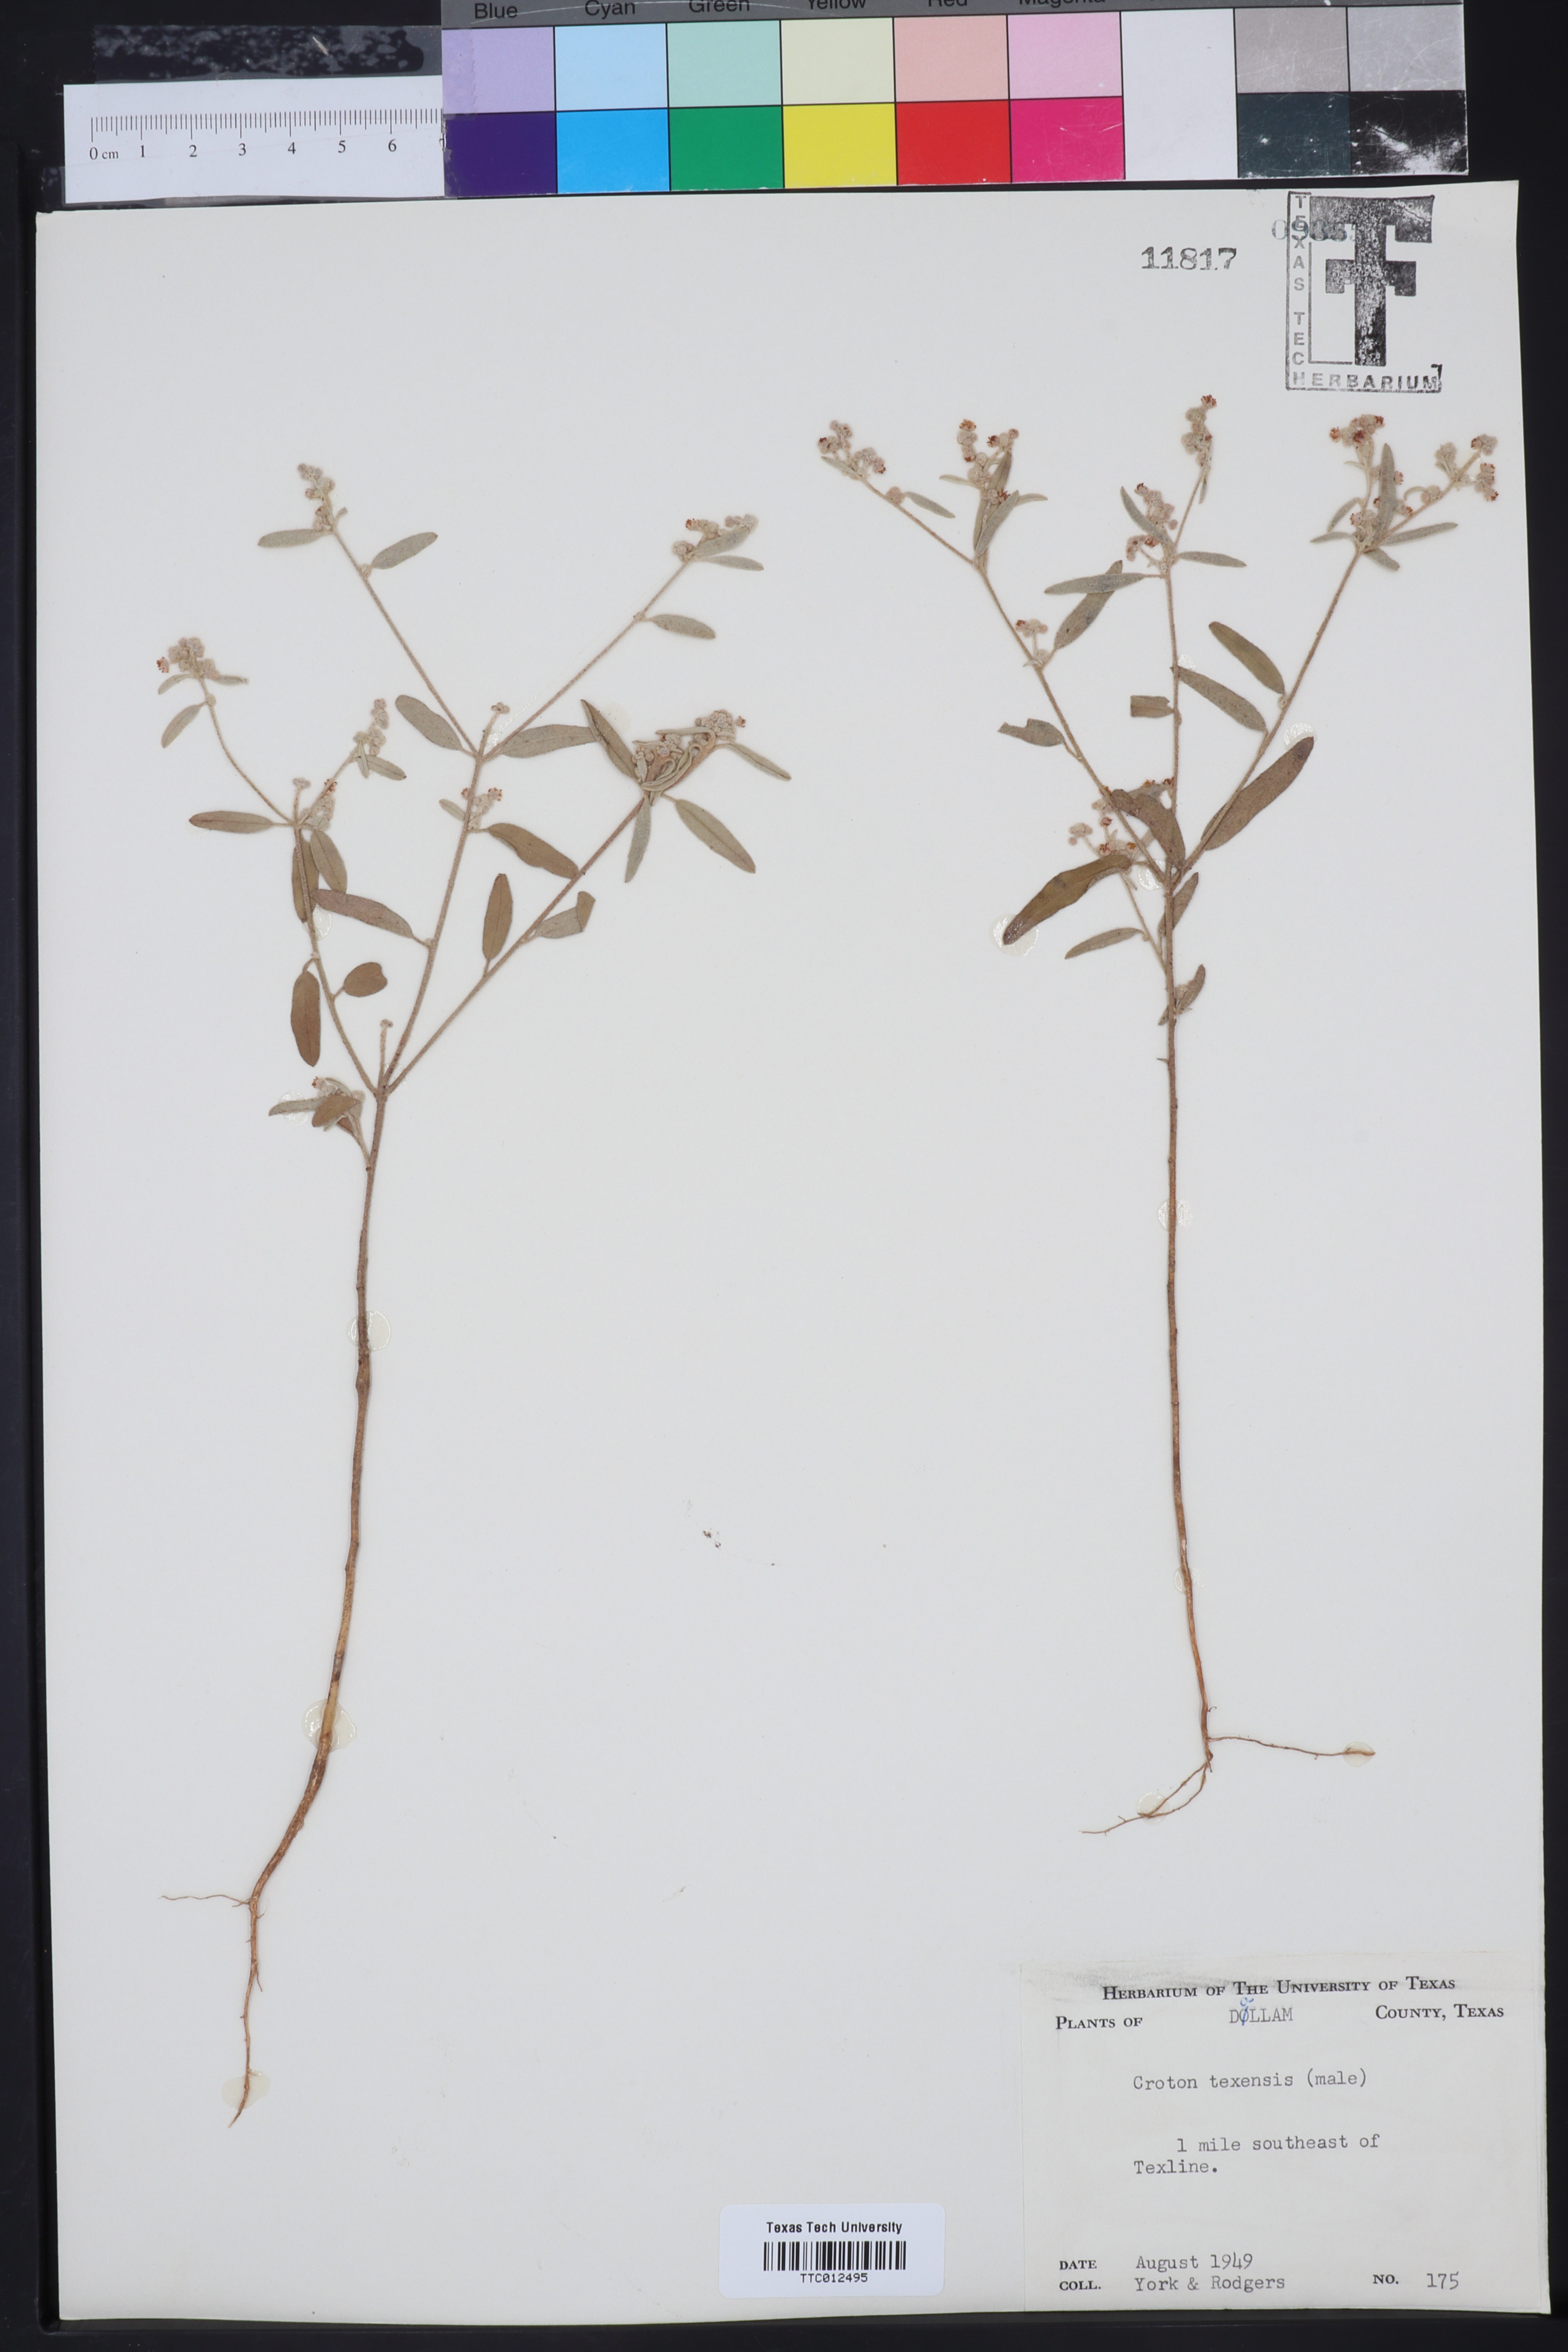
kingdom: Plantae
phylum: Tracheophyta
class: Magnoliopsida
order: Malpighiales
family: Euphorbiaceae
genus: Croton
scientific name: Croton texensis
